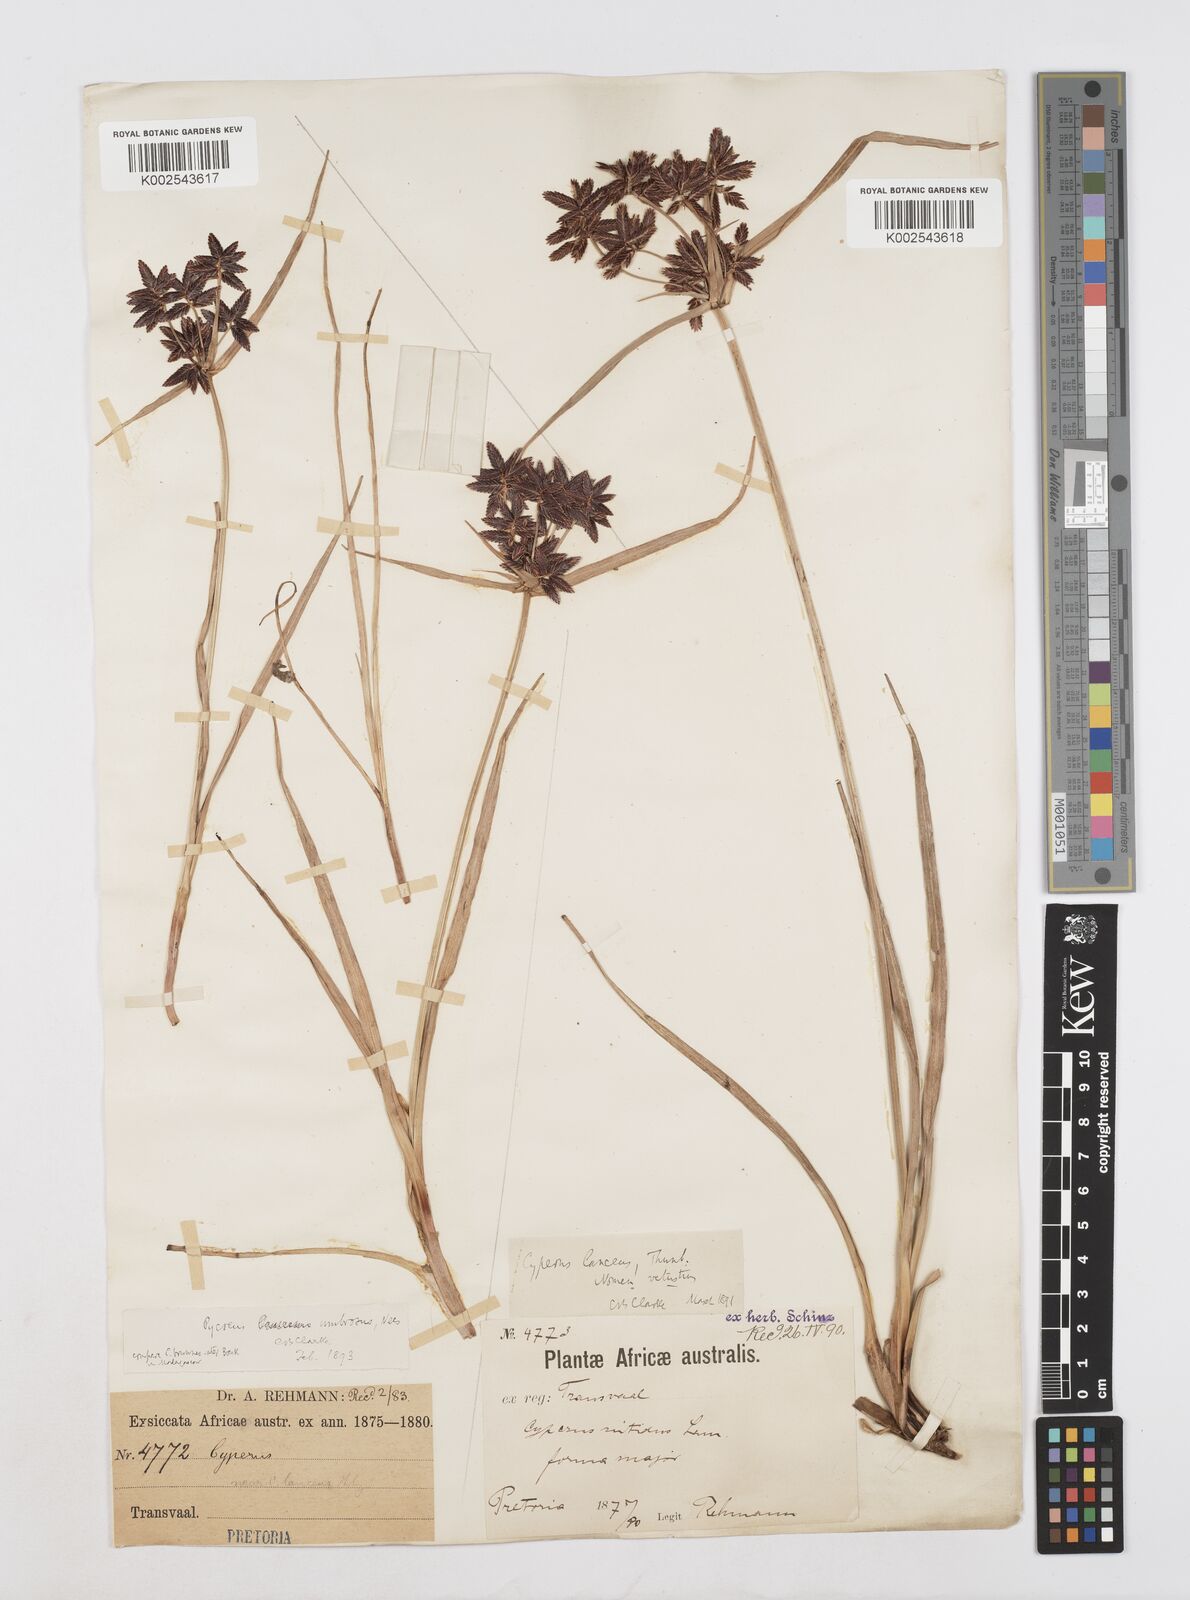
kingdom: Plantae
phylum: Tracheophyta
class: Liliopsida
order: Poales
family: Cyperaceae
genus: Cyperus
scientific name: Cyperus nitidus
